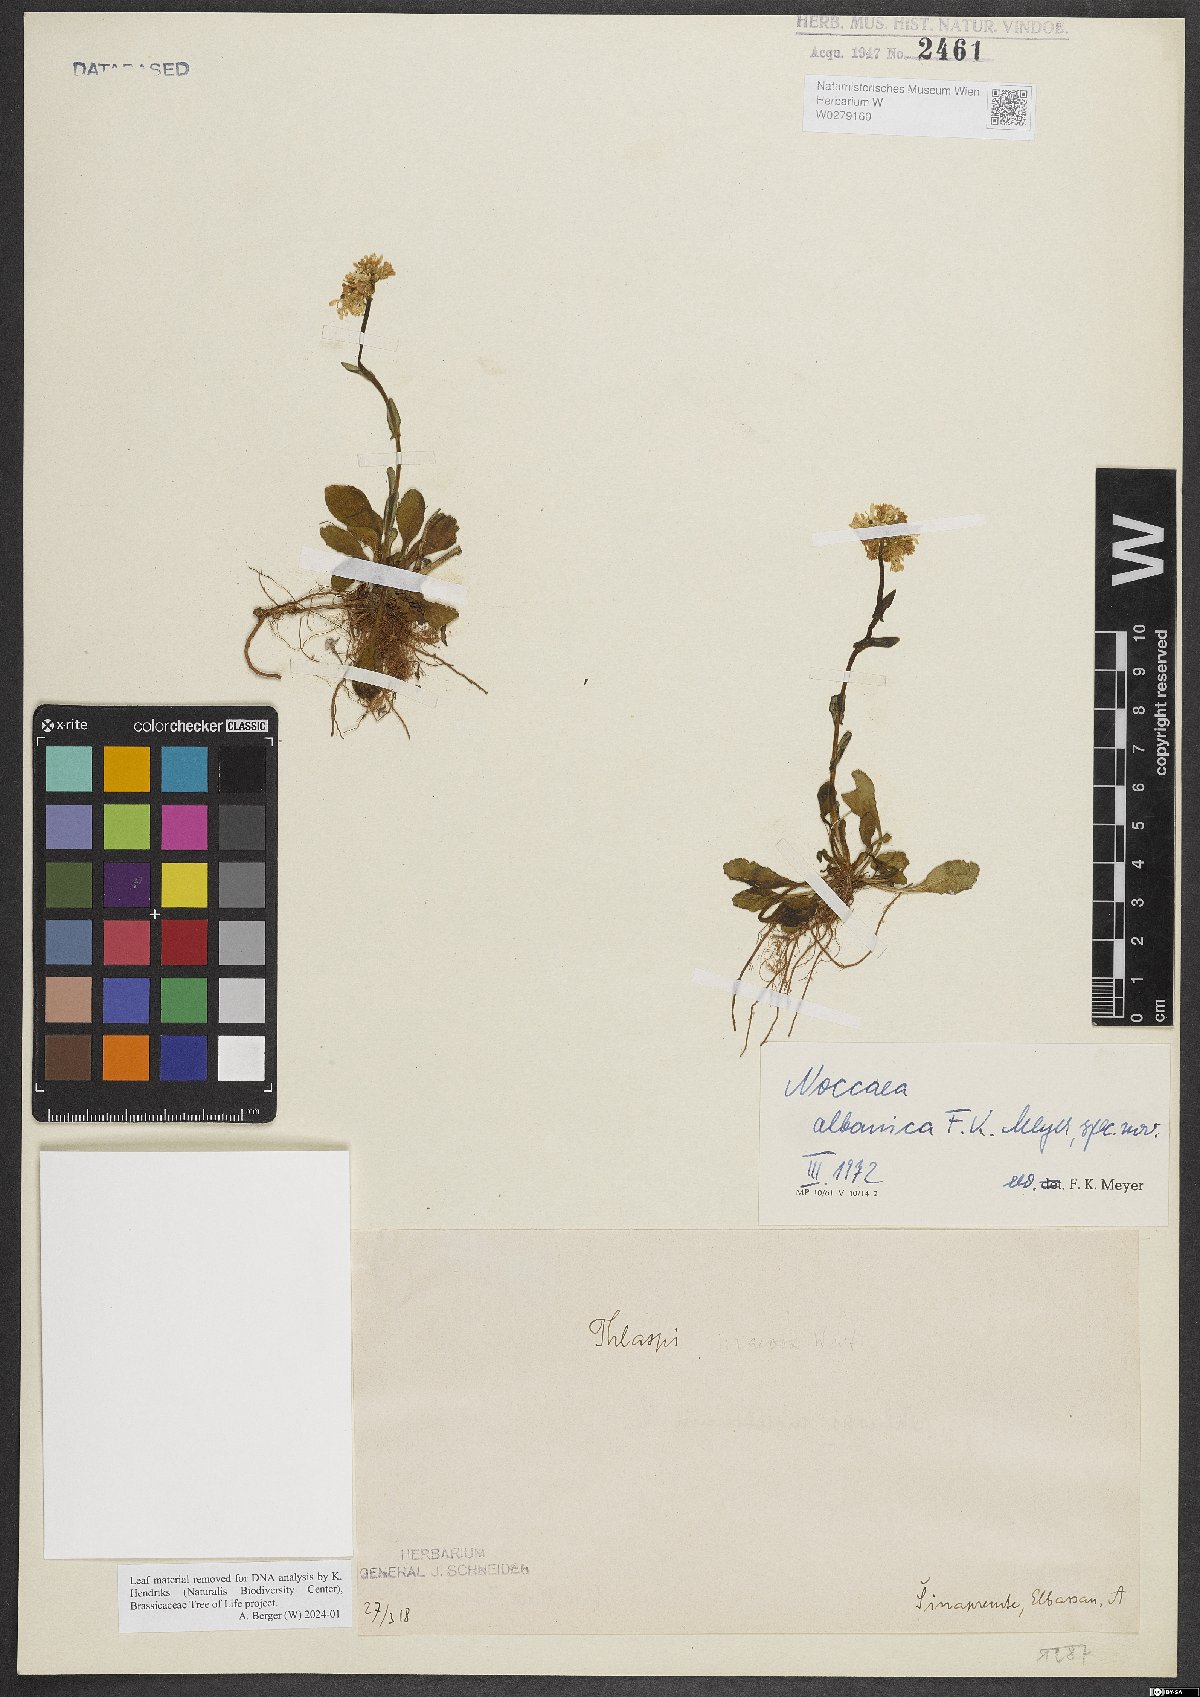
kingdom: Plantae
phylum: Tracheophyta
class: Magnoliopsida
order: Brassicales
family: Brassicaceae
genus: Noccaea
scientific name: Noccaea albanica
